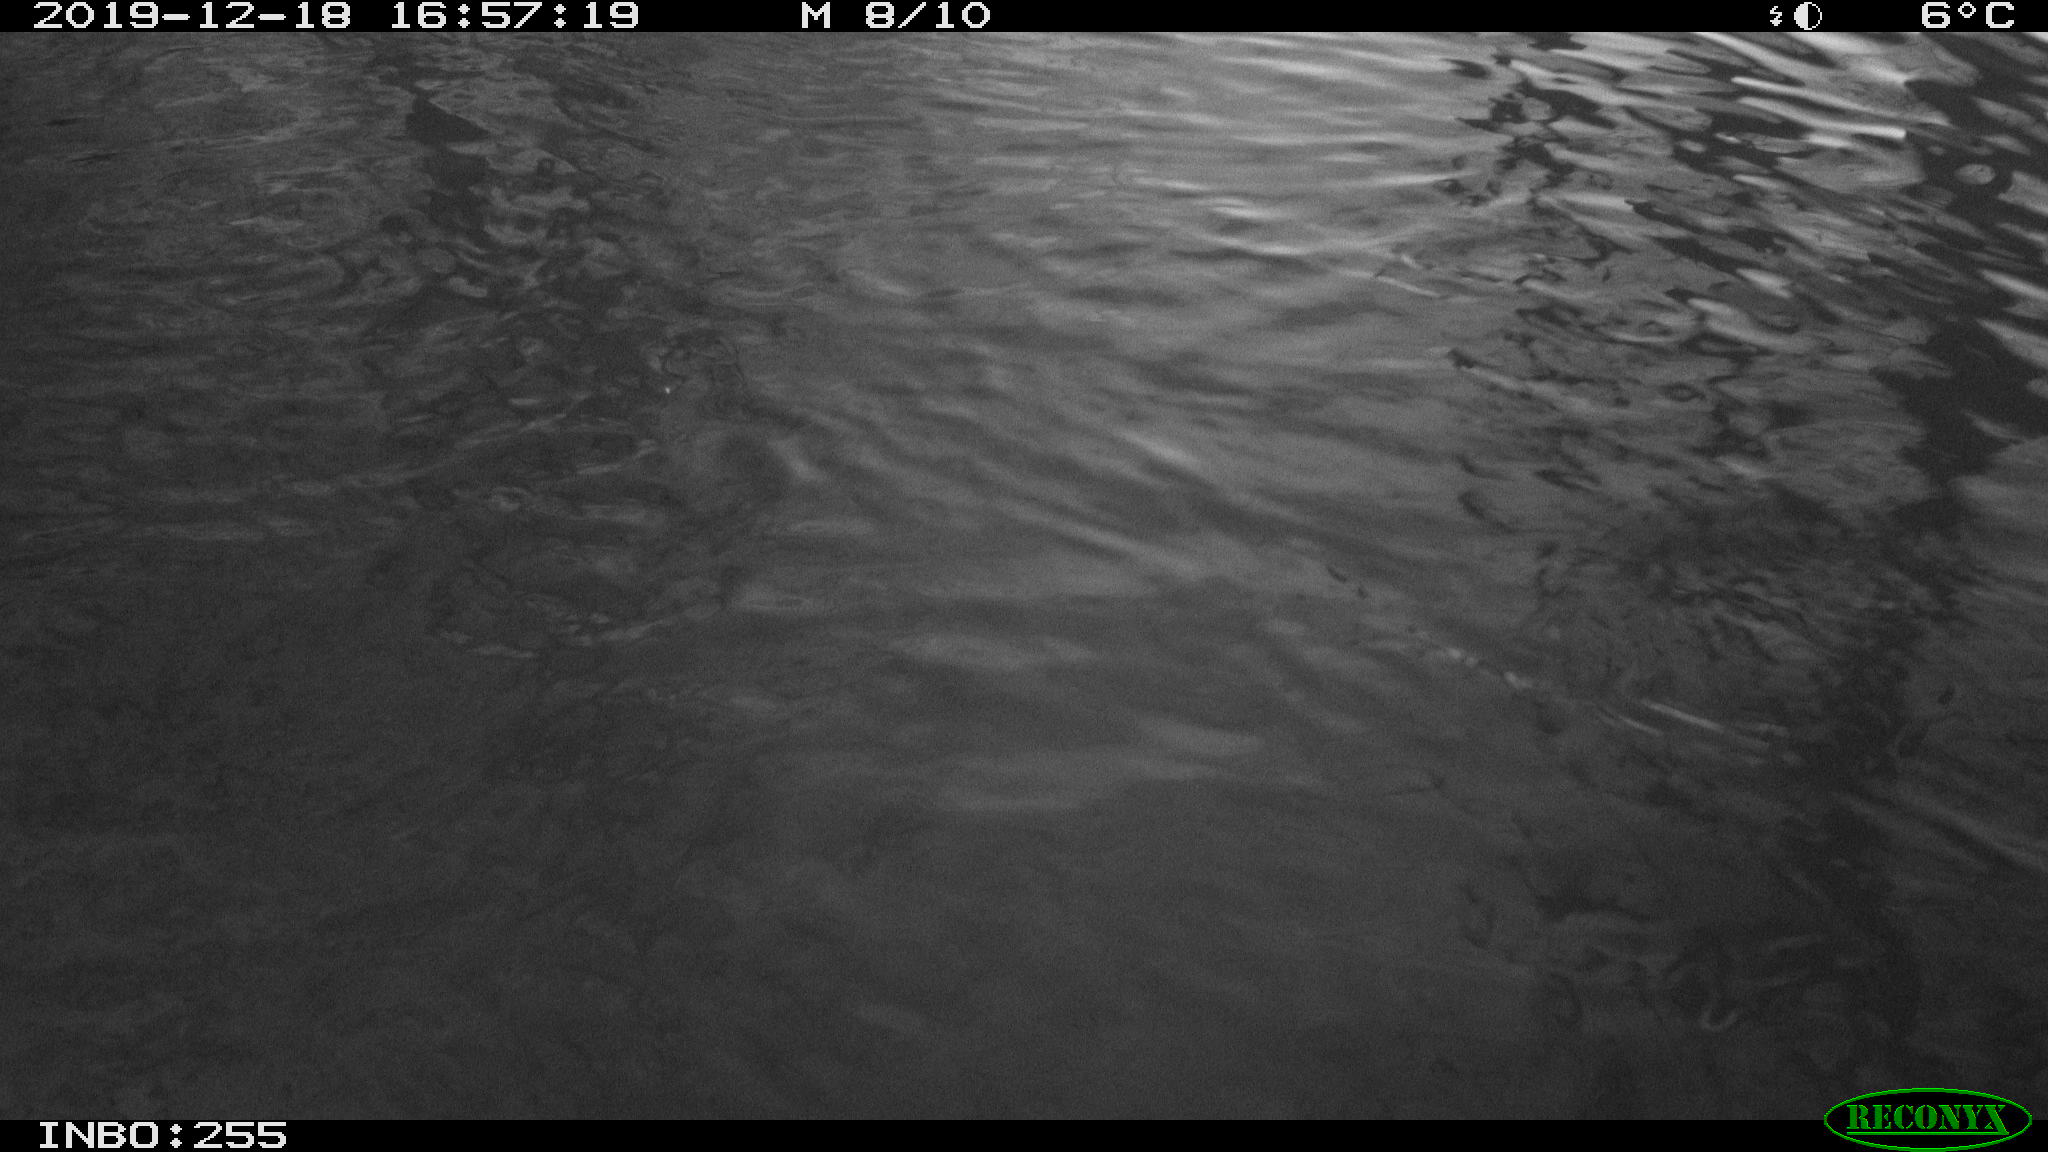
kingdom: Animalia
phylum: Chordata
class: Aves
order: Anseriformes
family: Anatidae
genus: Anas
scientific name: Anas platyrhynchos
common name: Mallard
